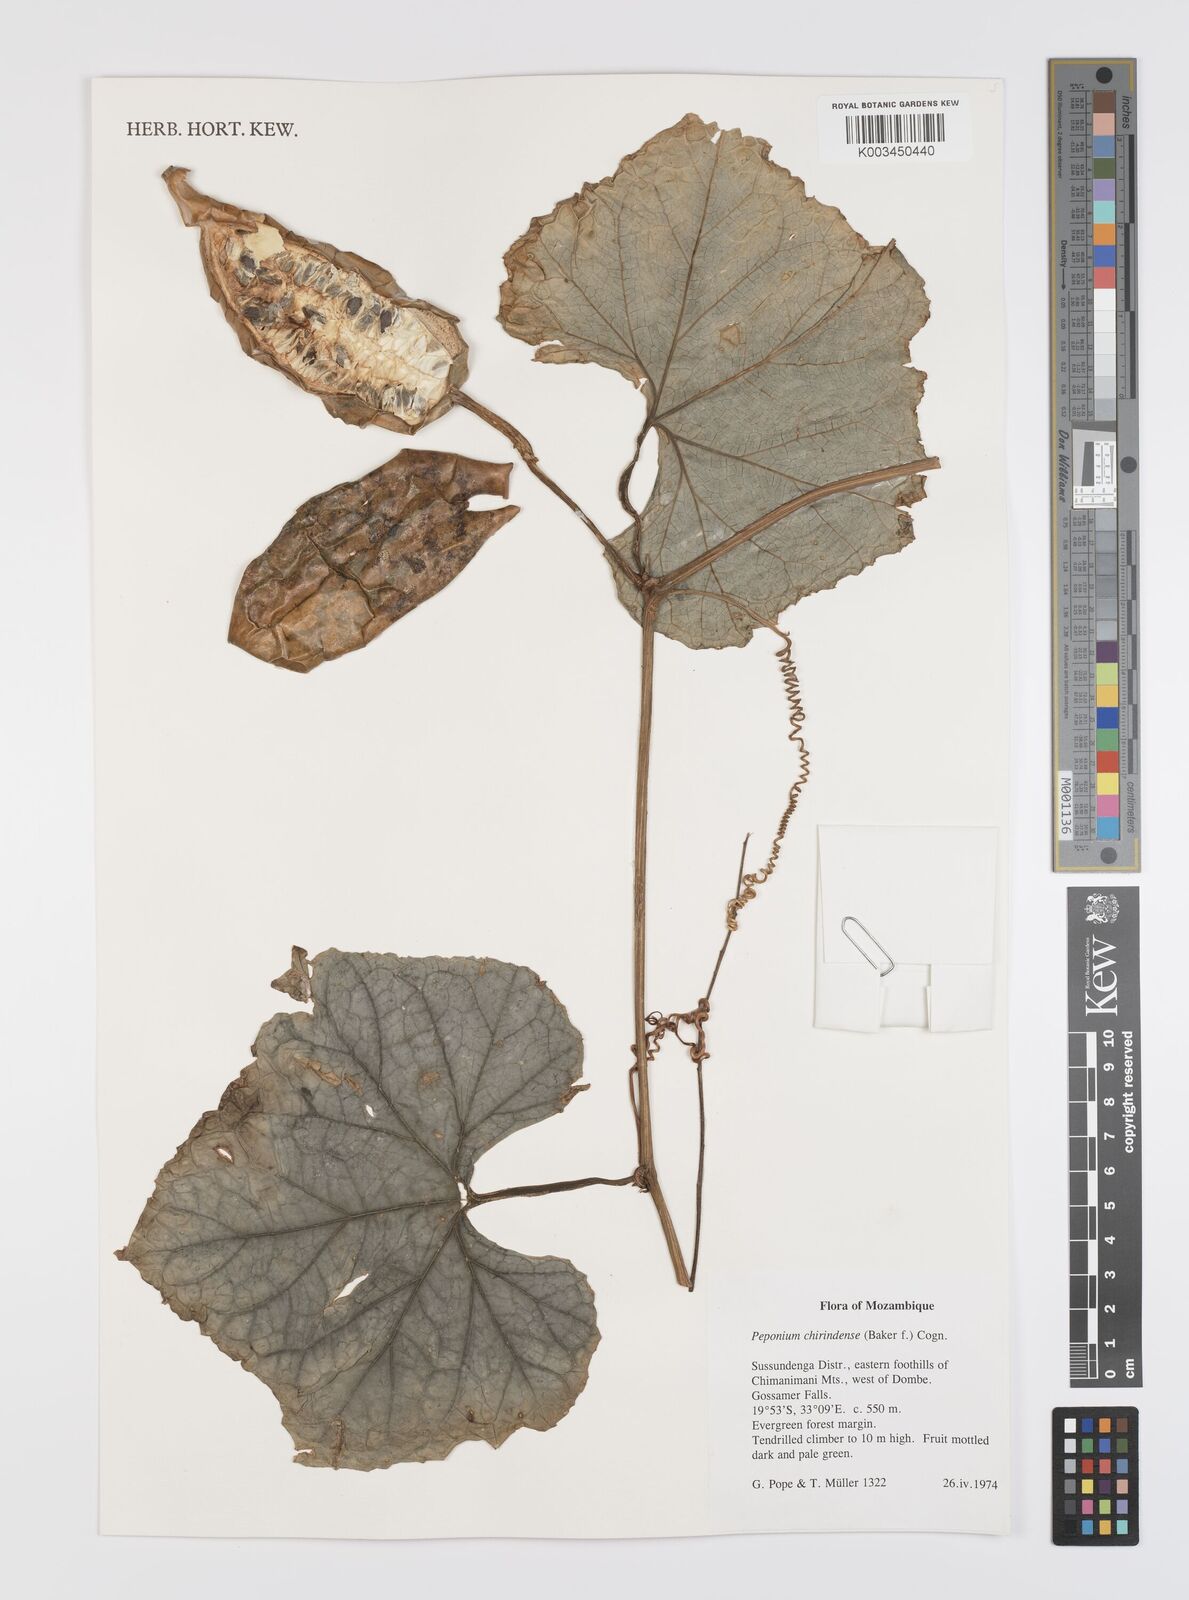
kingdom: Plantae
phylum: Tracheophyta
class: Magnoliopsida
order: Cucurbitales
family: Cucurbitaceae
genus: Peponium
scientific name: Peponium chirindense
